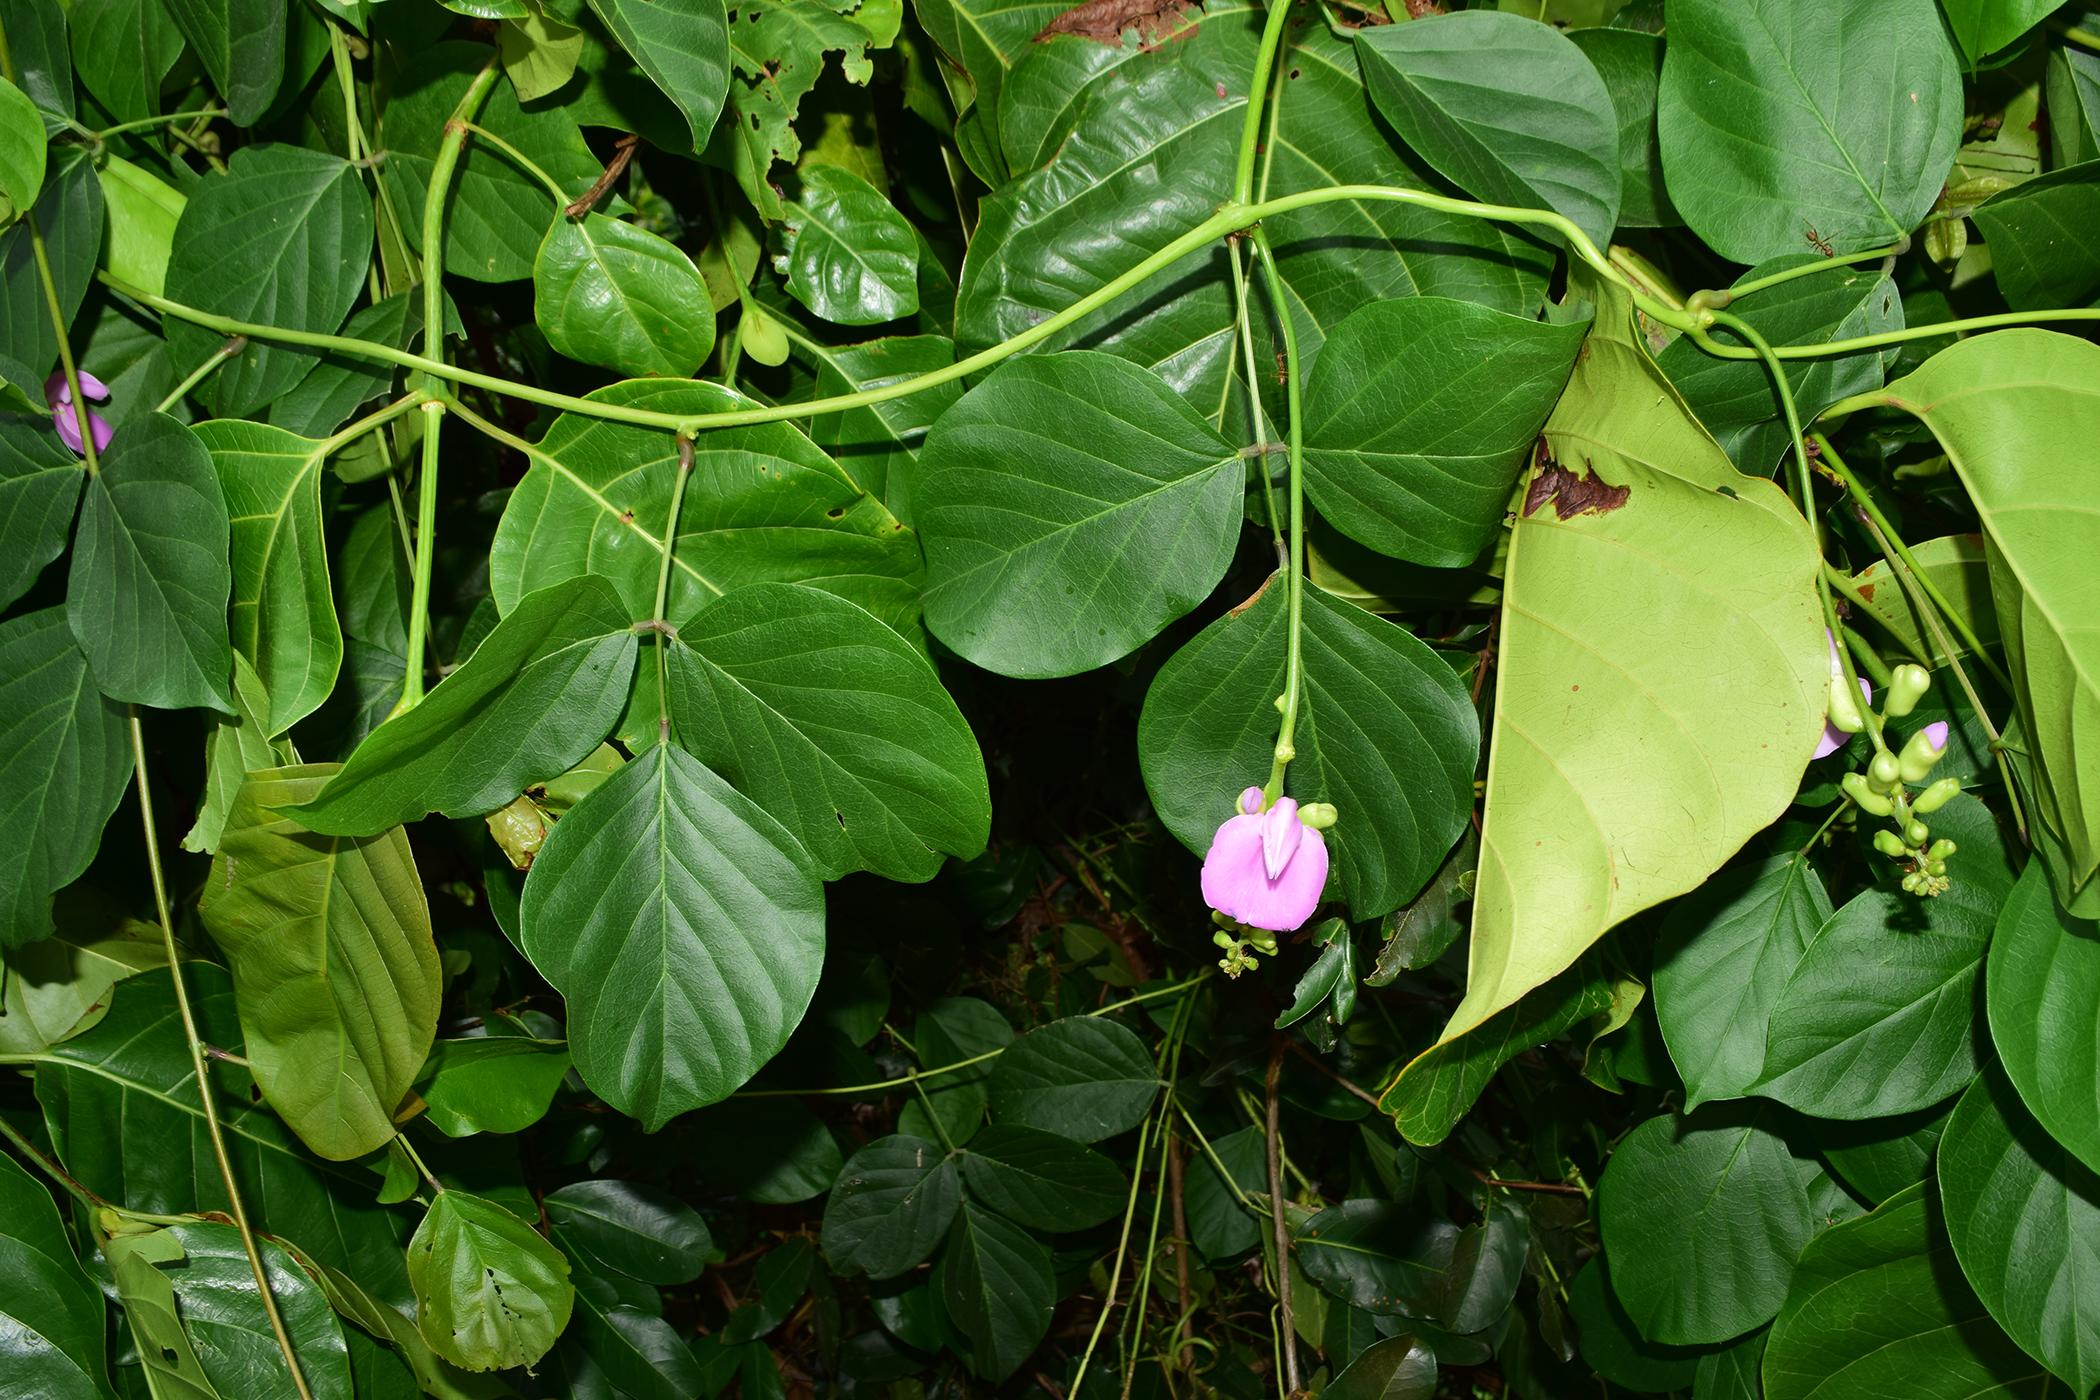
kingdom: Plantae
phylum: Tracheophyta
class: Magnoliopsida
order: Fabales
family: Fabaceae
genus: Canavalia
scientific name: Canavalia cathartica
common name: Maunaloa
